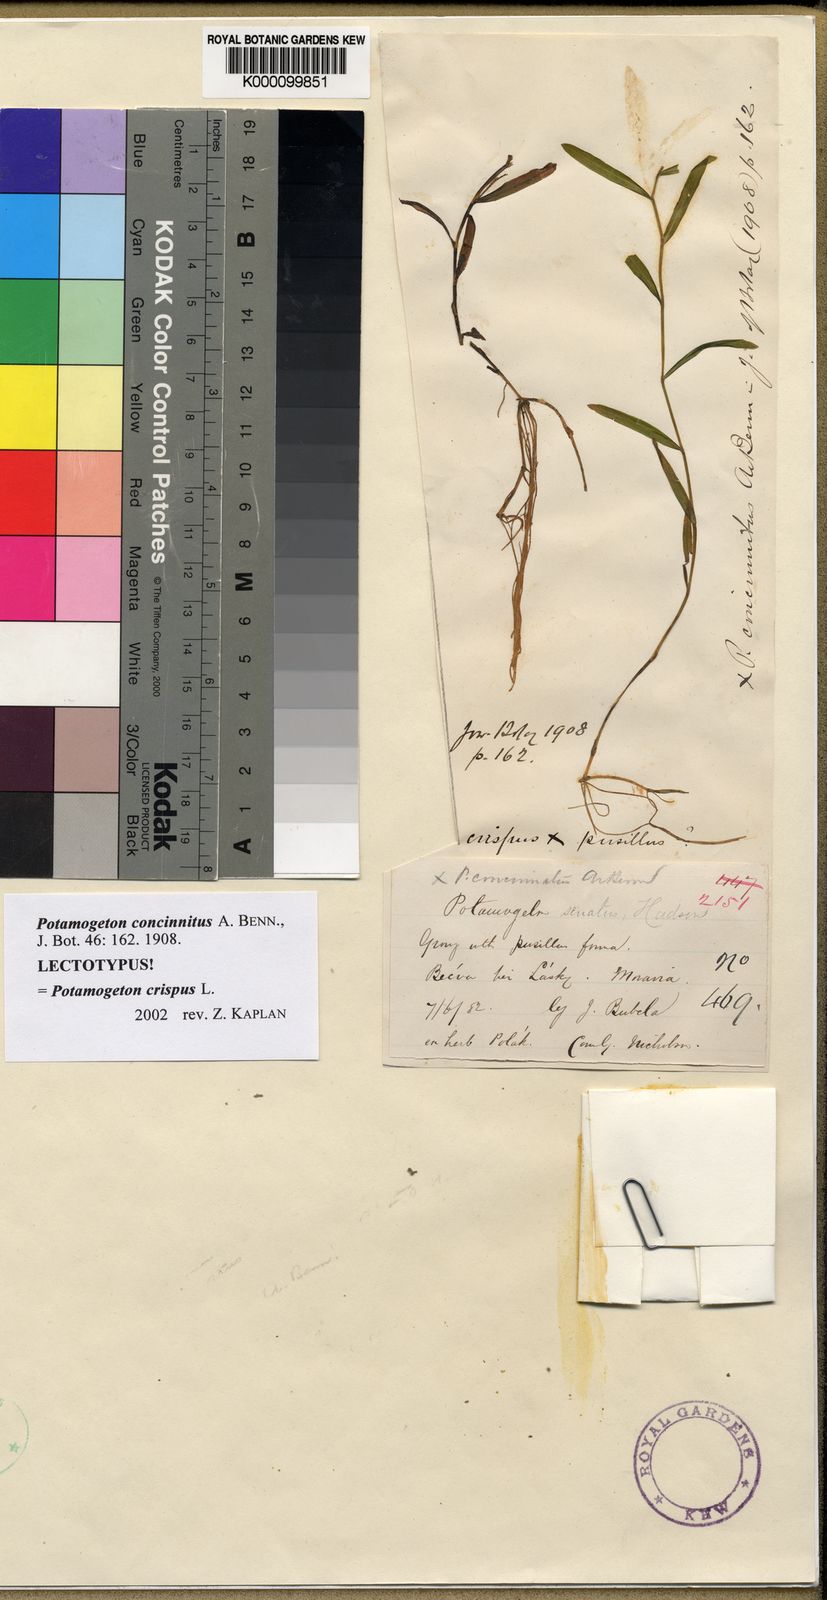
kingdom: Plantae
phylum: Tracheophyta
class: Liliopsida
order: Alismatales
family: Potamogetonaceae
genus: Potamogeton
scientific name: Potamogeton crispus
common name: Curled pondweed
